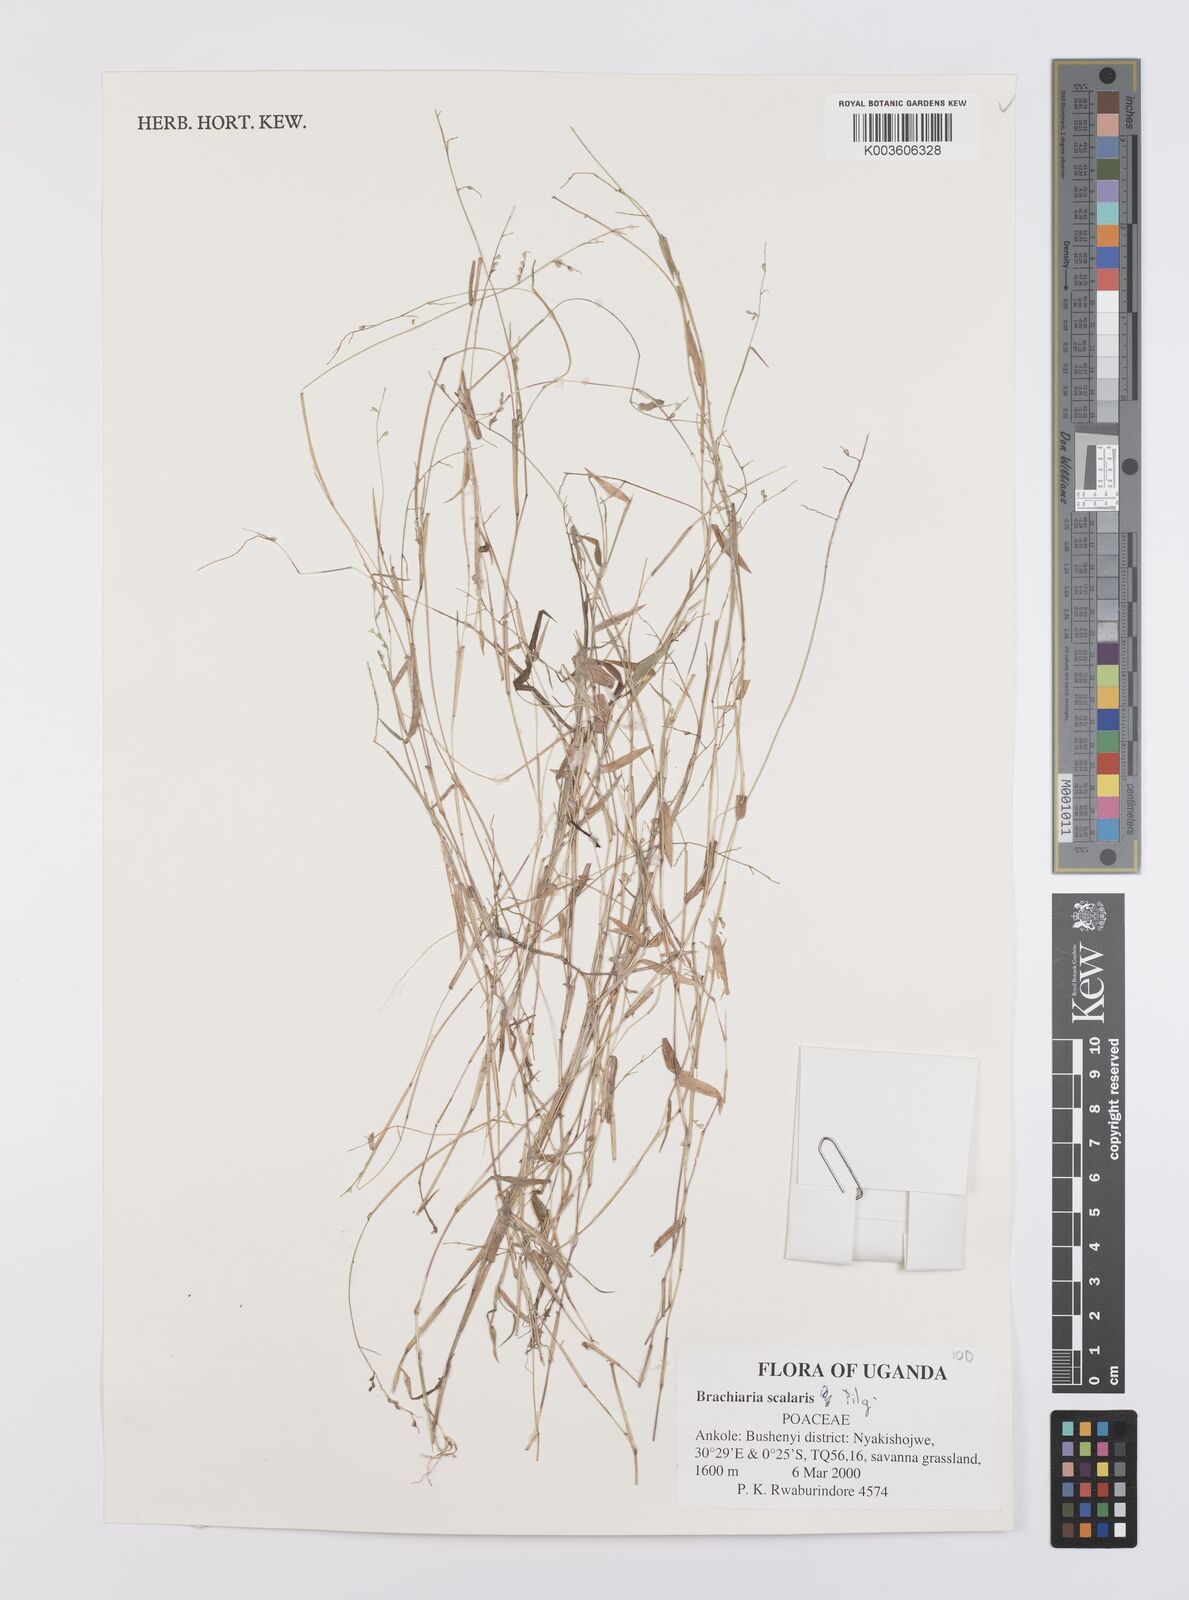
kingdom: Plantae
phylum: Tracheophyta
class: Liliopsida
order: Poales
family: Poaceae
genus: Urochloa
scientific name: Urochloa comata
